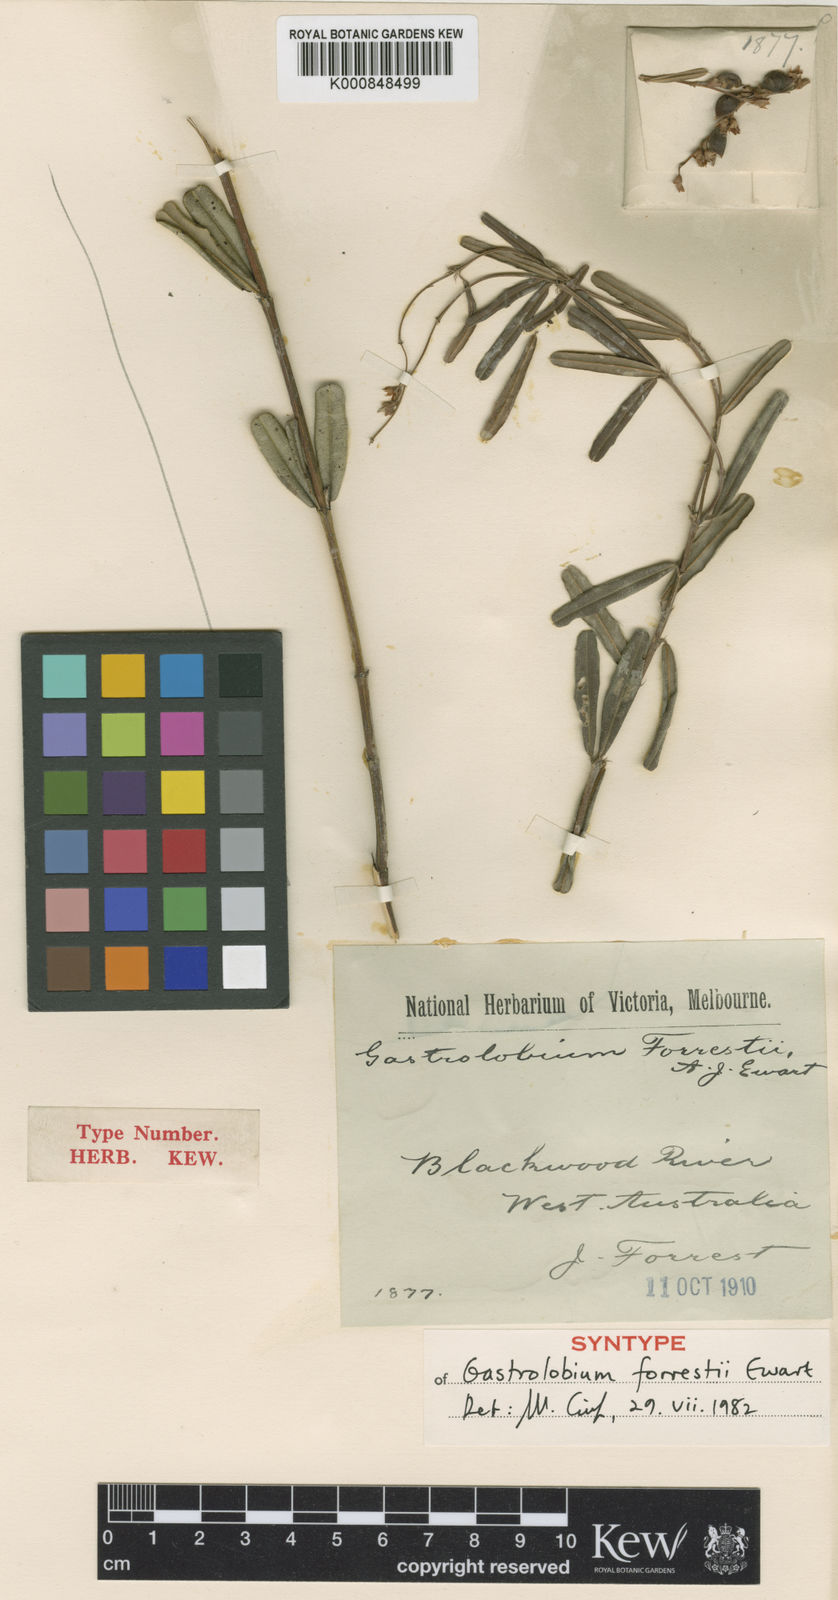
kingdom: Plantae
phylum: Tracheophyta
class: Magnoliopsida
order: Fabales
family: Fabaceae
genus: Gastrolobium
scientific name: Gastrolobium cuneatum
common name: River poisonbush
